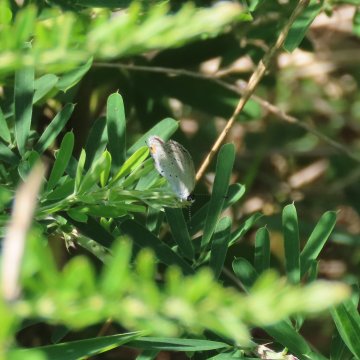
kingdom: Animalia
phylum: Arthropoda
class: Insecta
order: Lepidoptera
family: Lycaenidae
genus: Elkalyce
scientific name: Elkalyce comyntas
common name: Eastern Tailed-Blue
